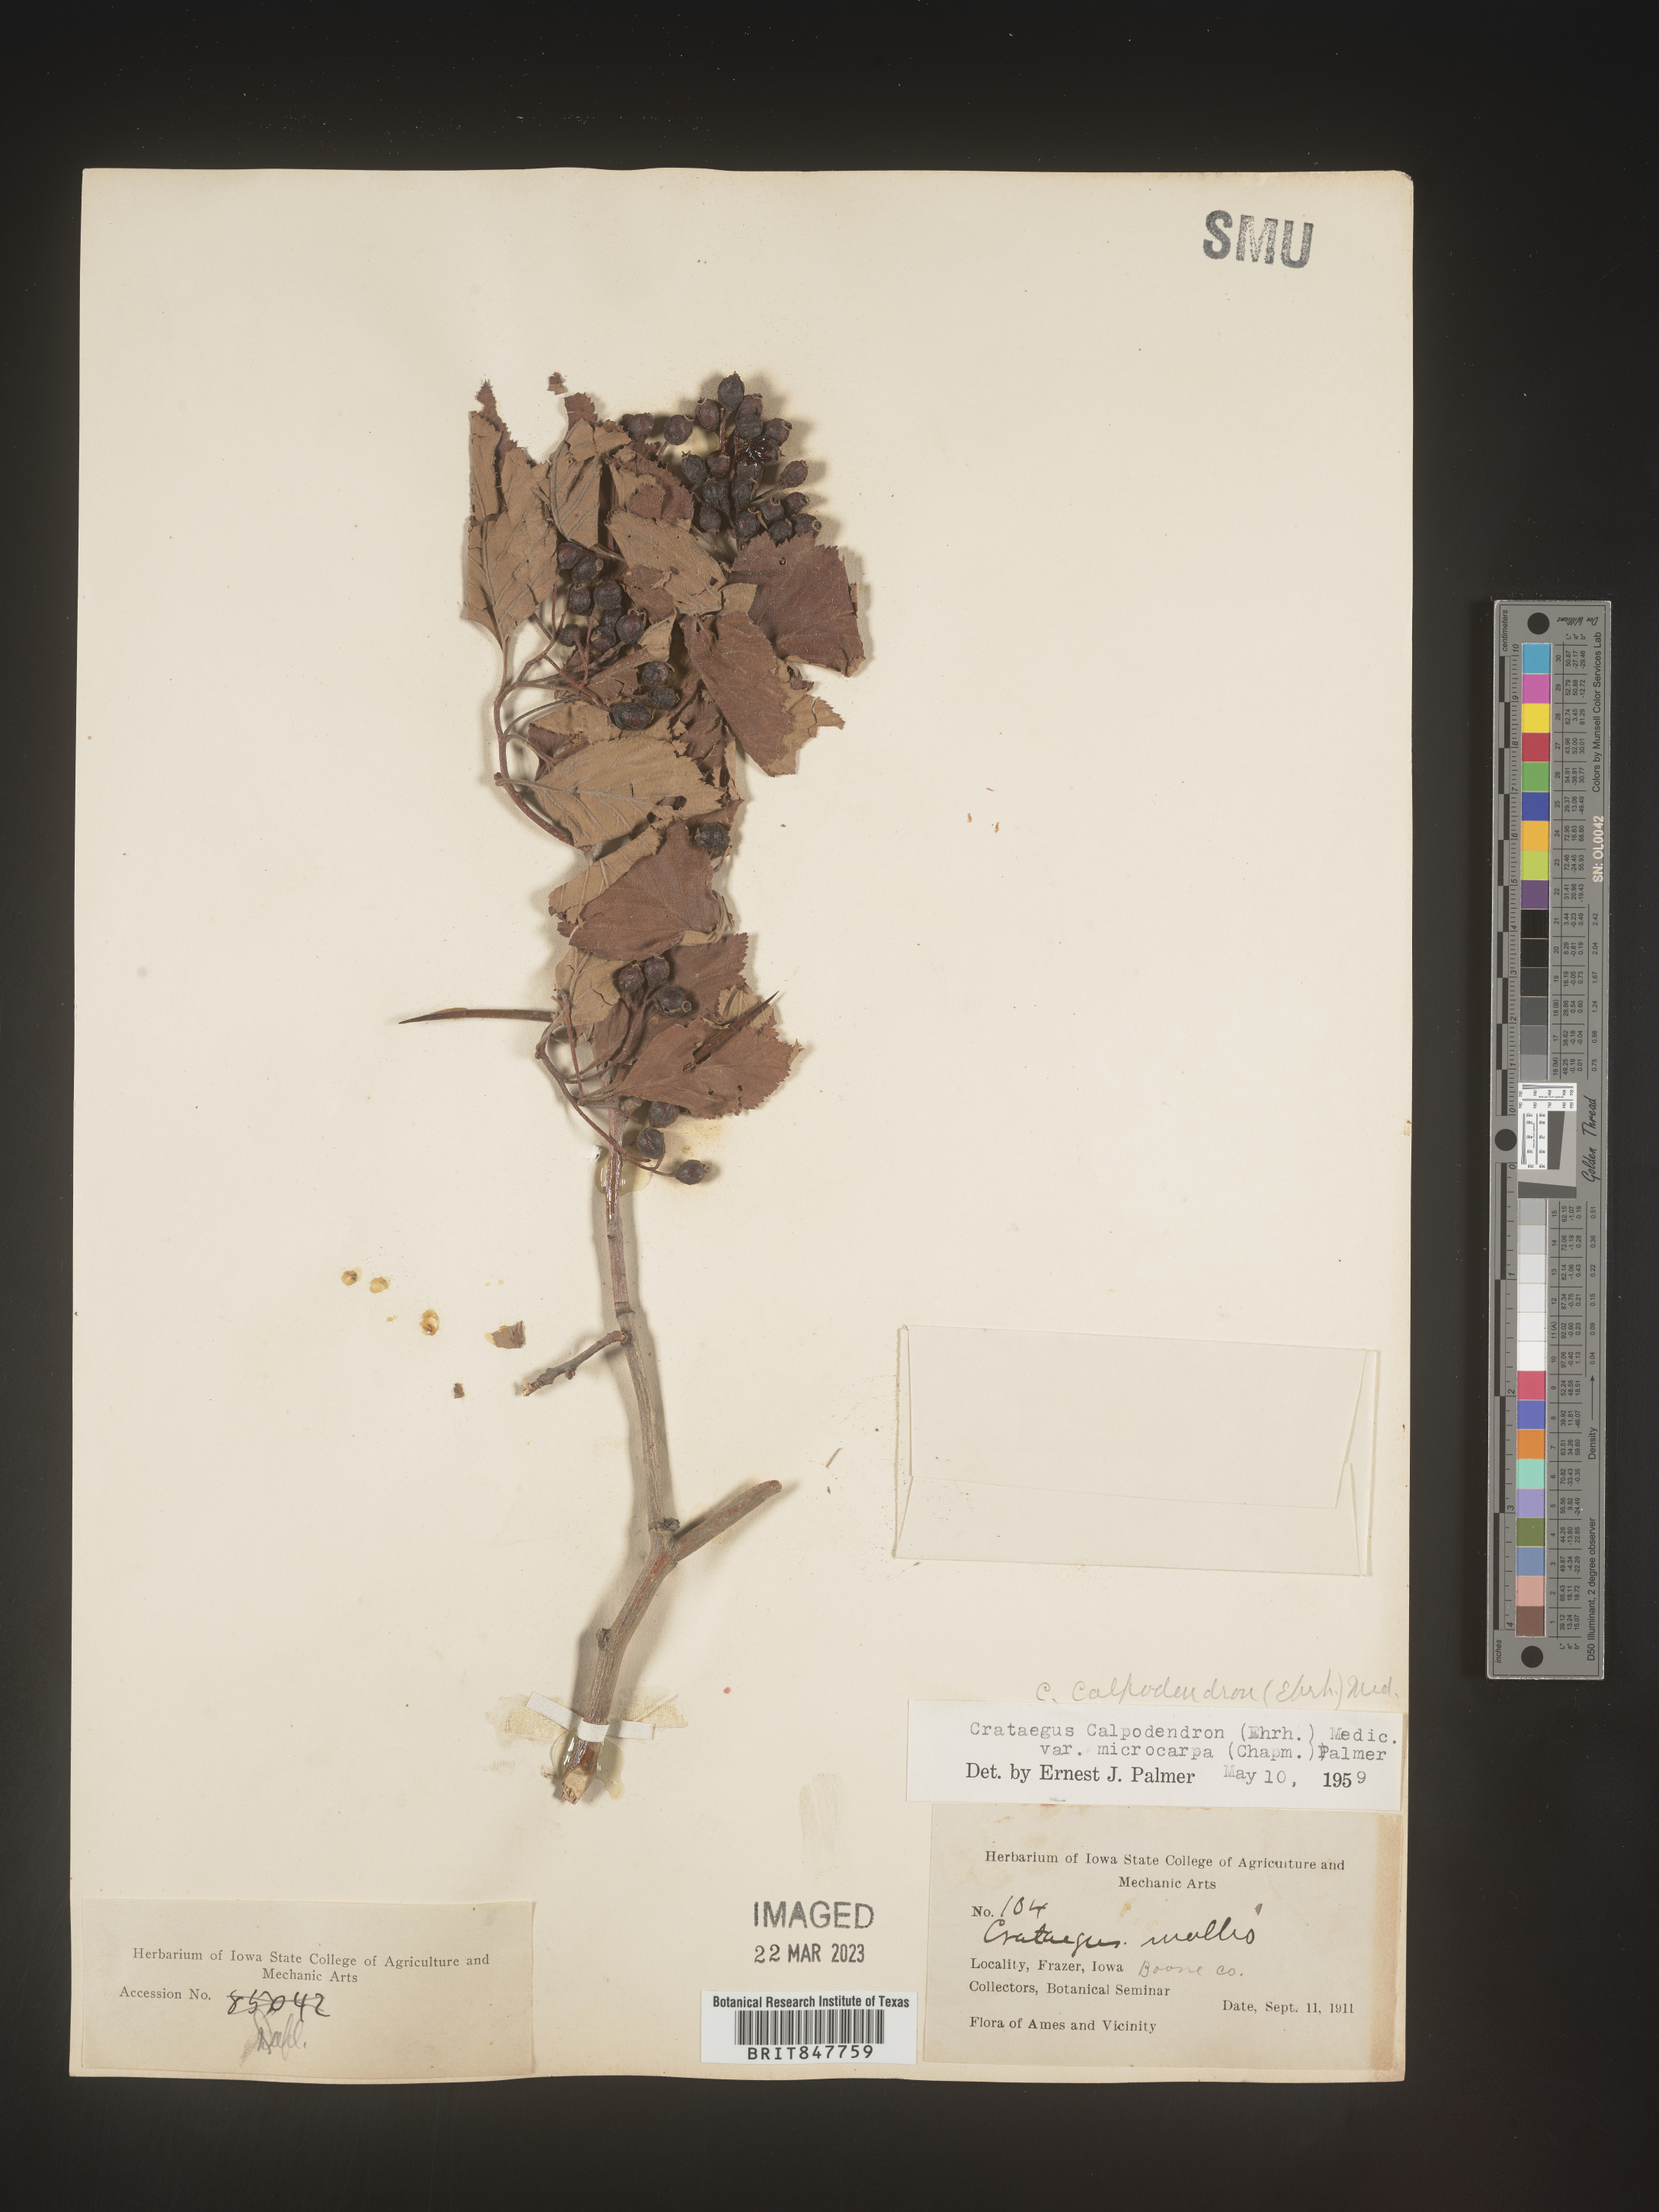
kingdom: Plantae
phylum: Tracheophyta
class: Magnoliopsida
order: Rosales
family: Rosaceae
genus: Crataegus
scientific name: Crataegus calpodendron
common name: Pear hawthorn
